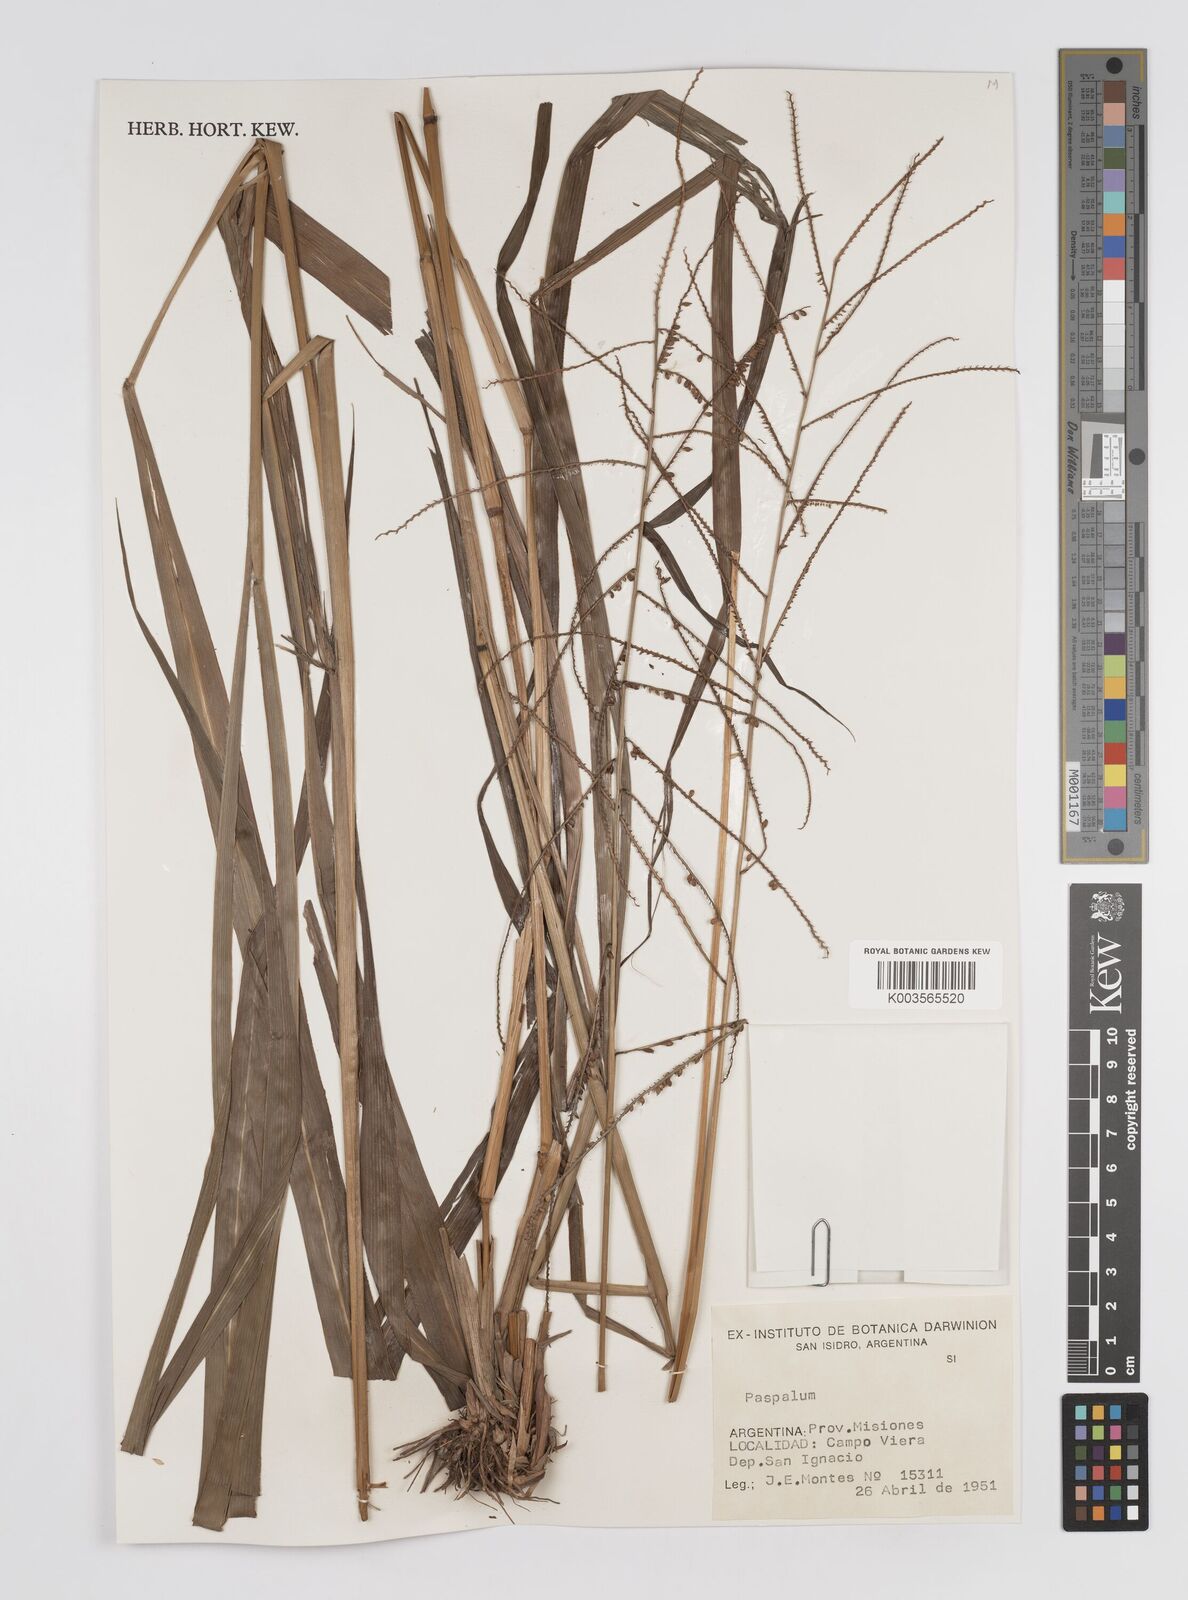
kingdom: Plantae
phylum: Tracheophyta
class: Liliopsida
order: Poales
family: Poaceae
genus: Paspalum
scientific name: Paspalum
